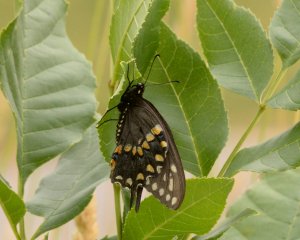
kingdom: Animalia
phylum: Arthropoda
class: Insecta
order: Lepidoptera
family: Papilionidae
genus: Papilio
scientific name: Papilio polyxenes
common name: Black Swallowtail
